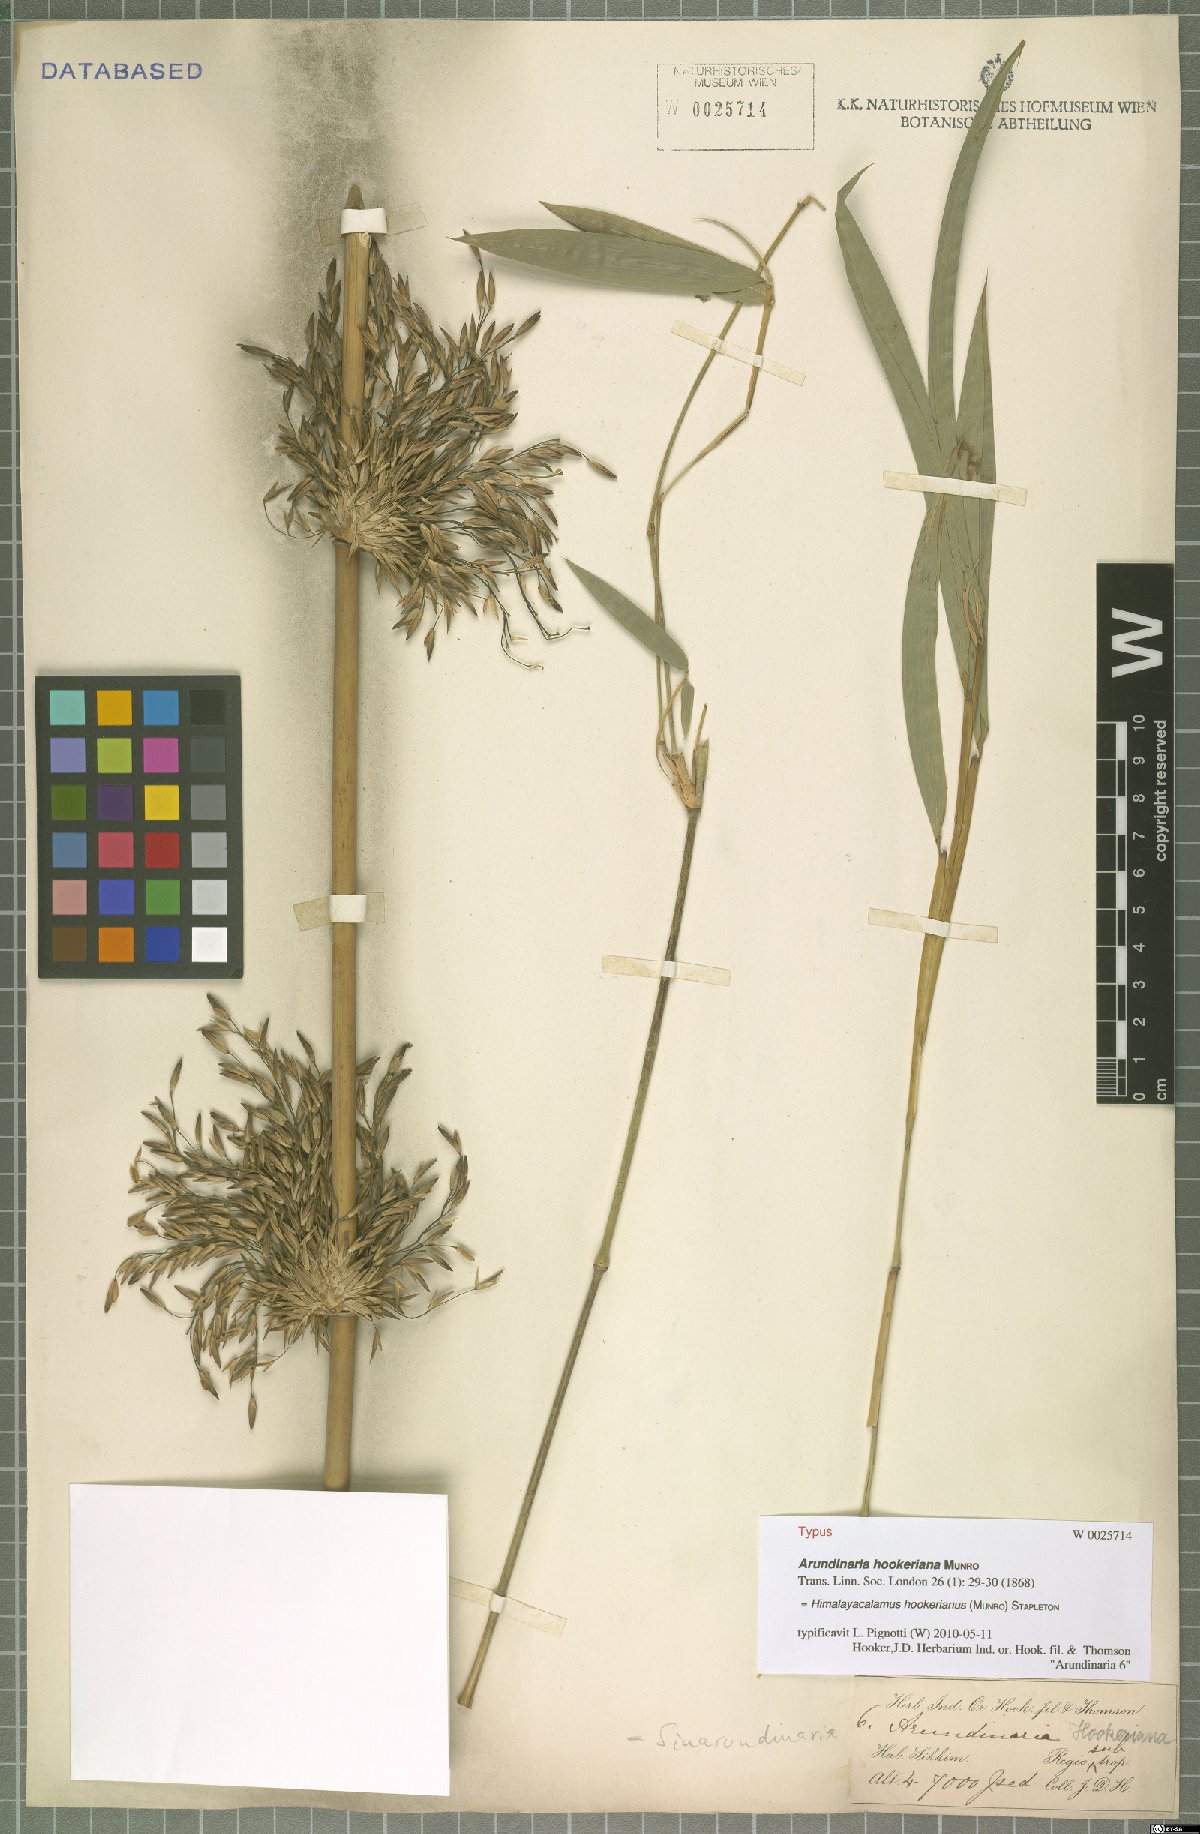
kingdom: Plantae
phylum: Tracheophyta
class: Liliopsida
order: Poales
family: Poaceae
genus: Himalayacalamus
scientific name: Himalayacalamus hookerianus
